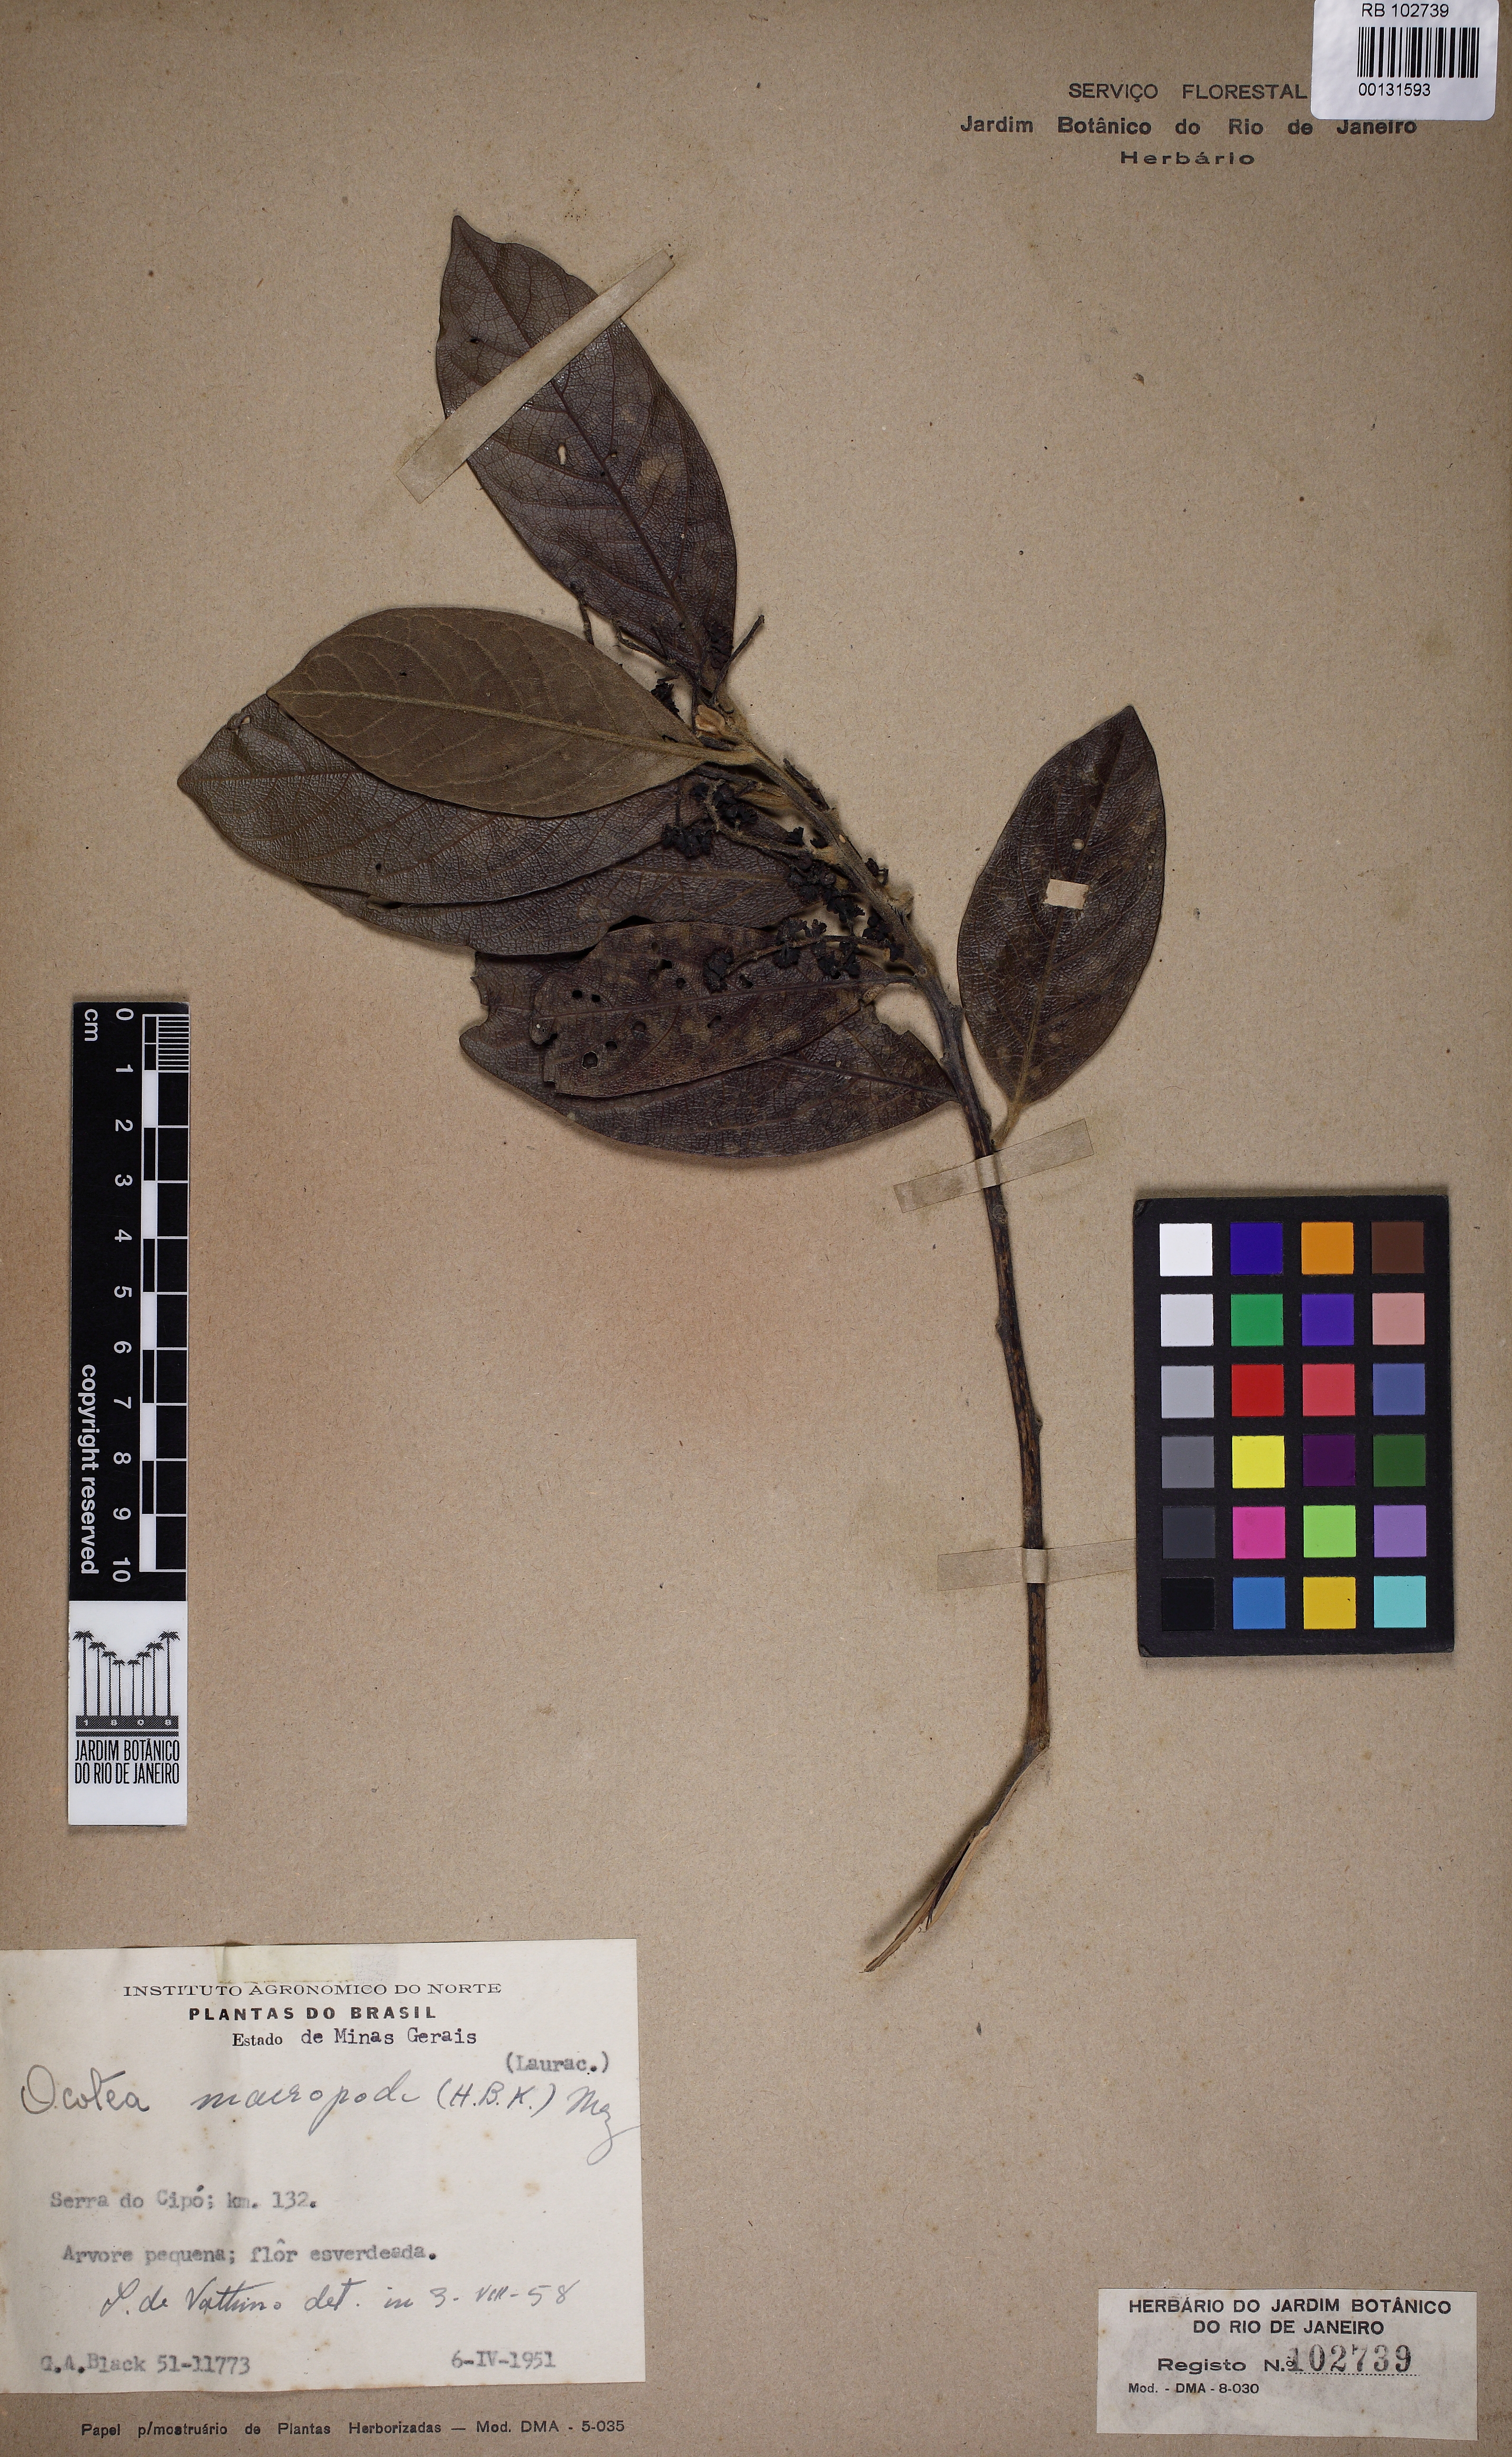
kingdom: Plantae
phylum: Tracheophyta
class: Magnoliopsida
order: Laurales
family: Lauraceae
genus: Ocotea
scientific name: Ocotea macropoda
